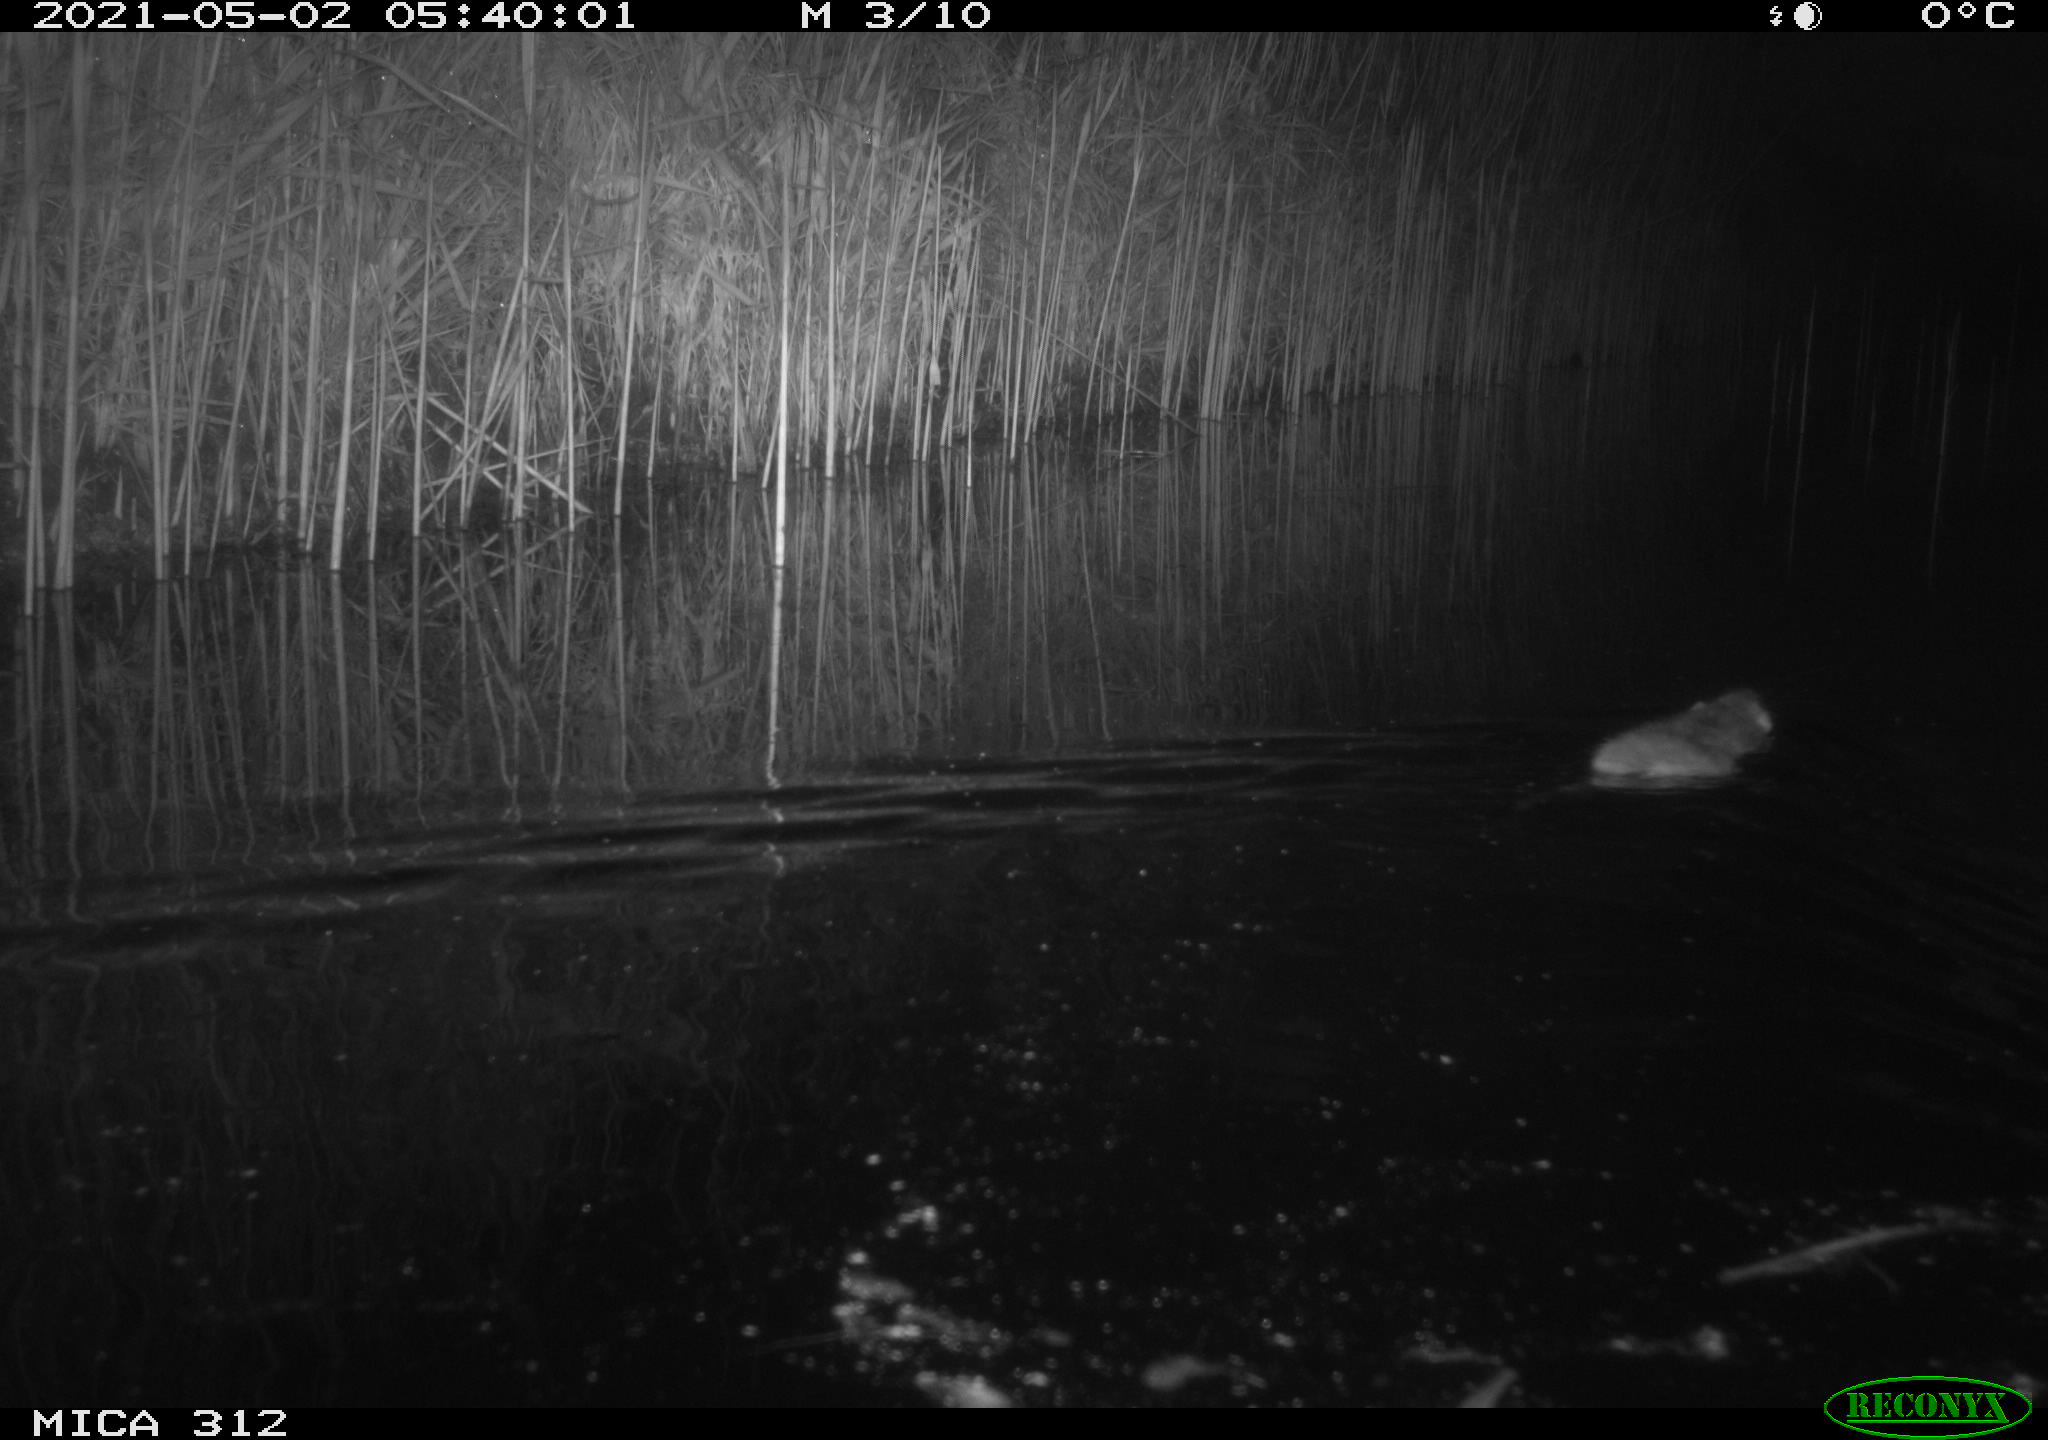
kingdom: Animalia
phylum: Chordata
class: Mammalia
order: Rodentia
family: Muridae
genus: Rattus
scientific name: Rattus norvegicus
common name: Brown rat
